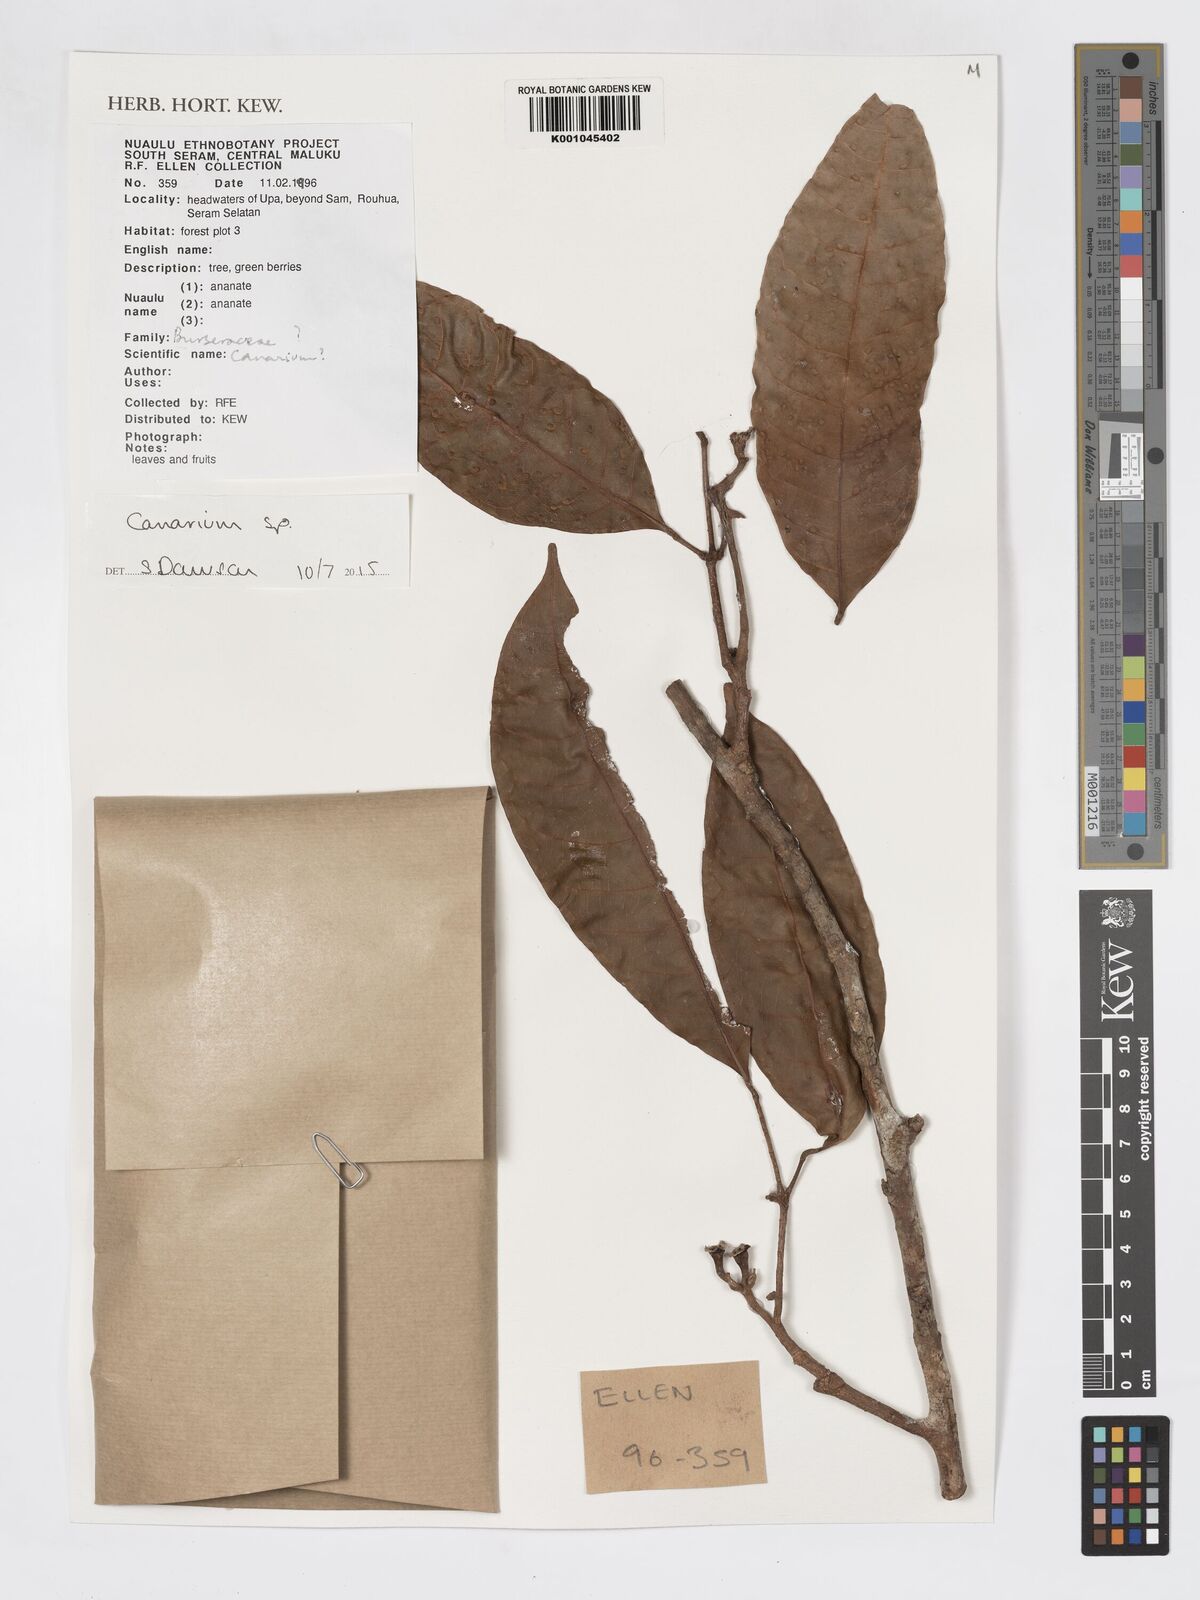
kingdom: Plantae
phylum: Tracheophyta
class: Magnoliopsida
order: Sapindales
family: Burseraceae
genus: Canarium
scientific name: Canarium
